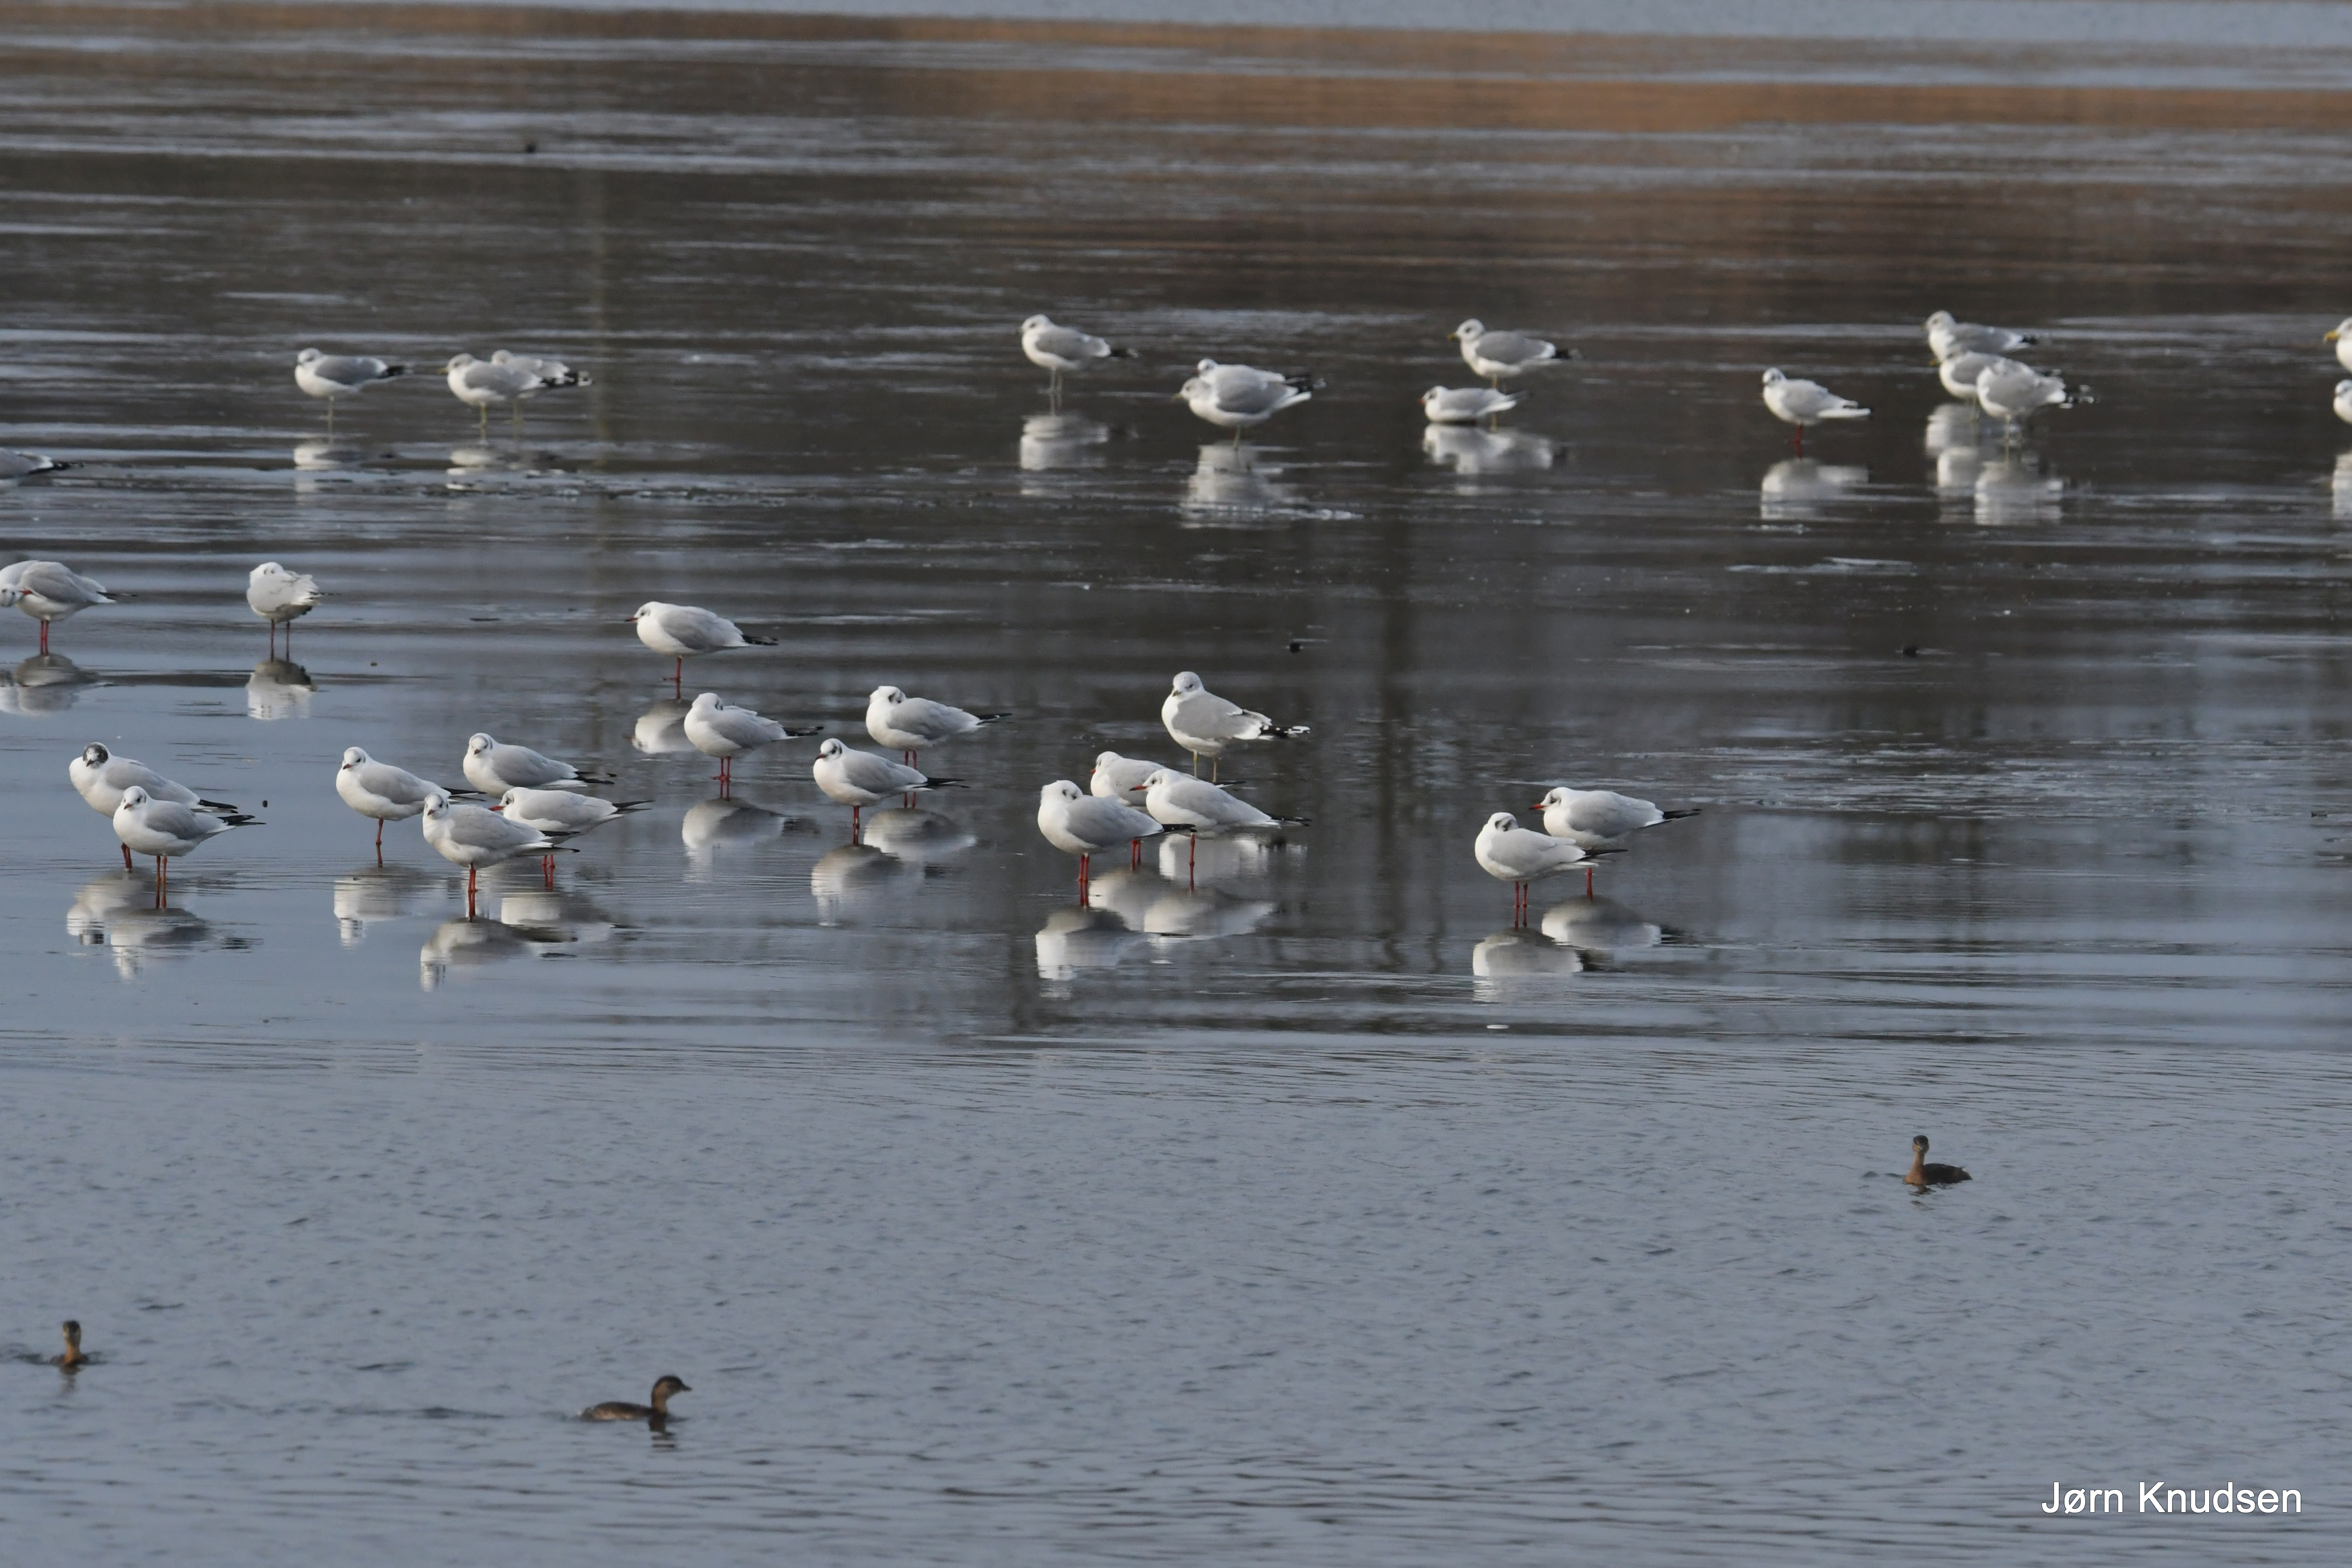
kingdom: Animalia
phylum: Chordata
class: Aves
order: Charadriiformes
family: Laridae
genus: Larus
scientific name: Larus argentatus
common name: Sølvmåge
